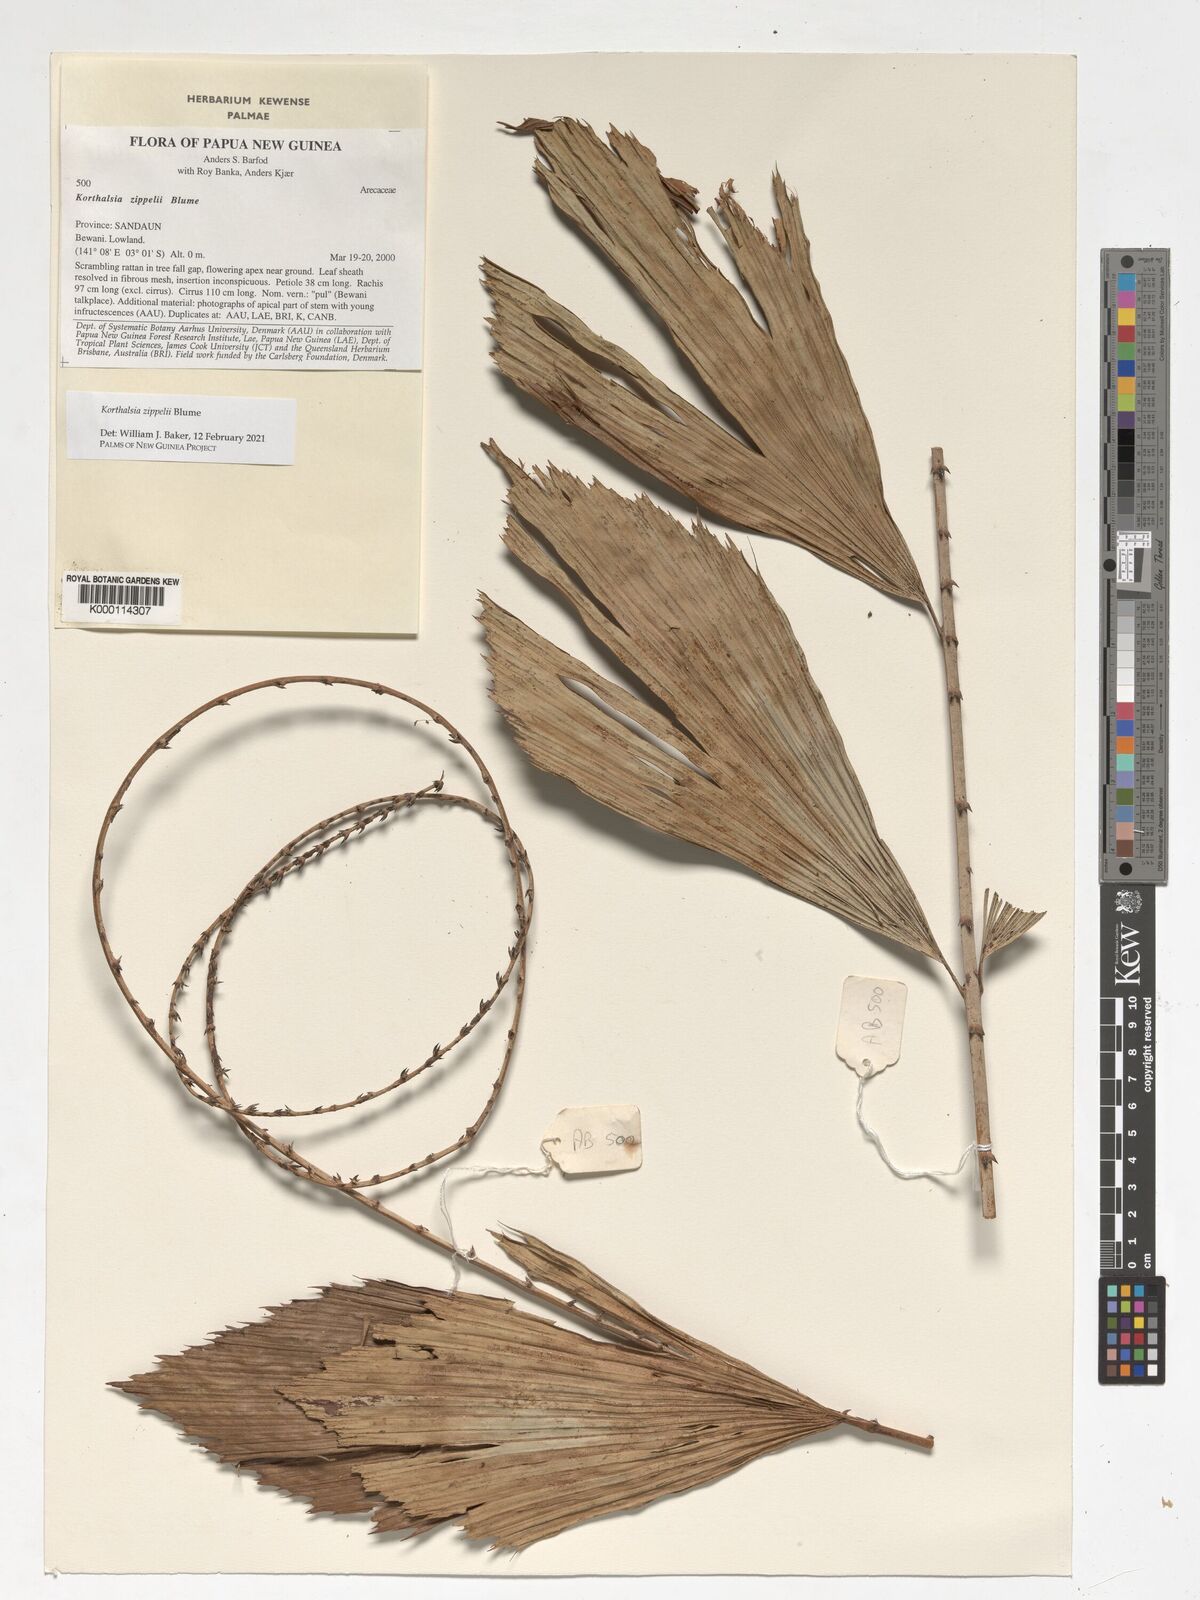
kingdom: Plantae
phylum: Tracheophyta
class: Liliopsida
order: Arecales
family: Arecaceae
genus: Korthalsia
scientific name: Korthalsia zippelii
